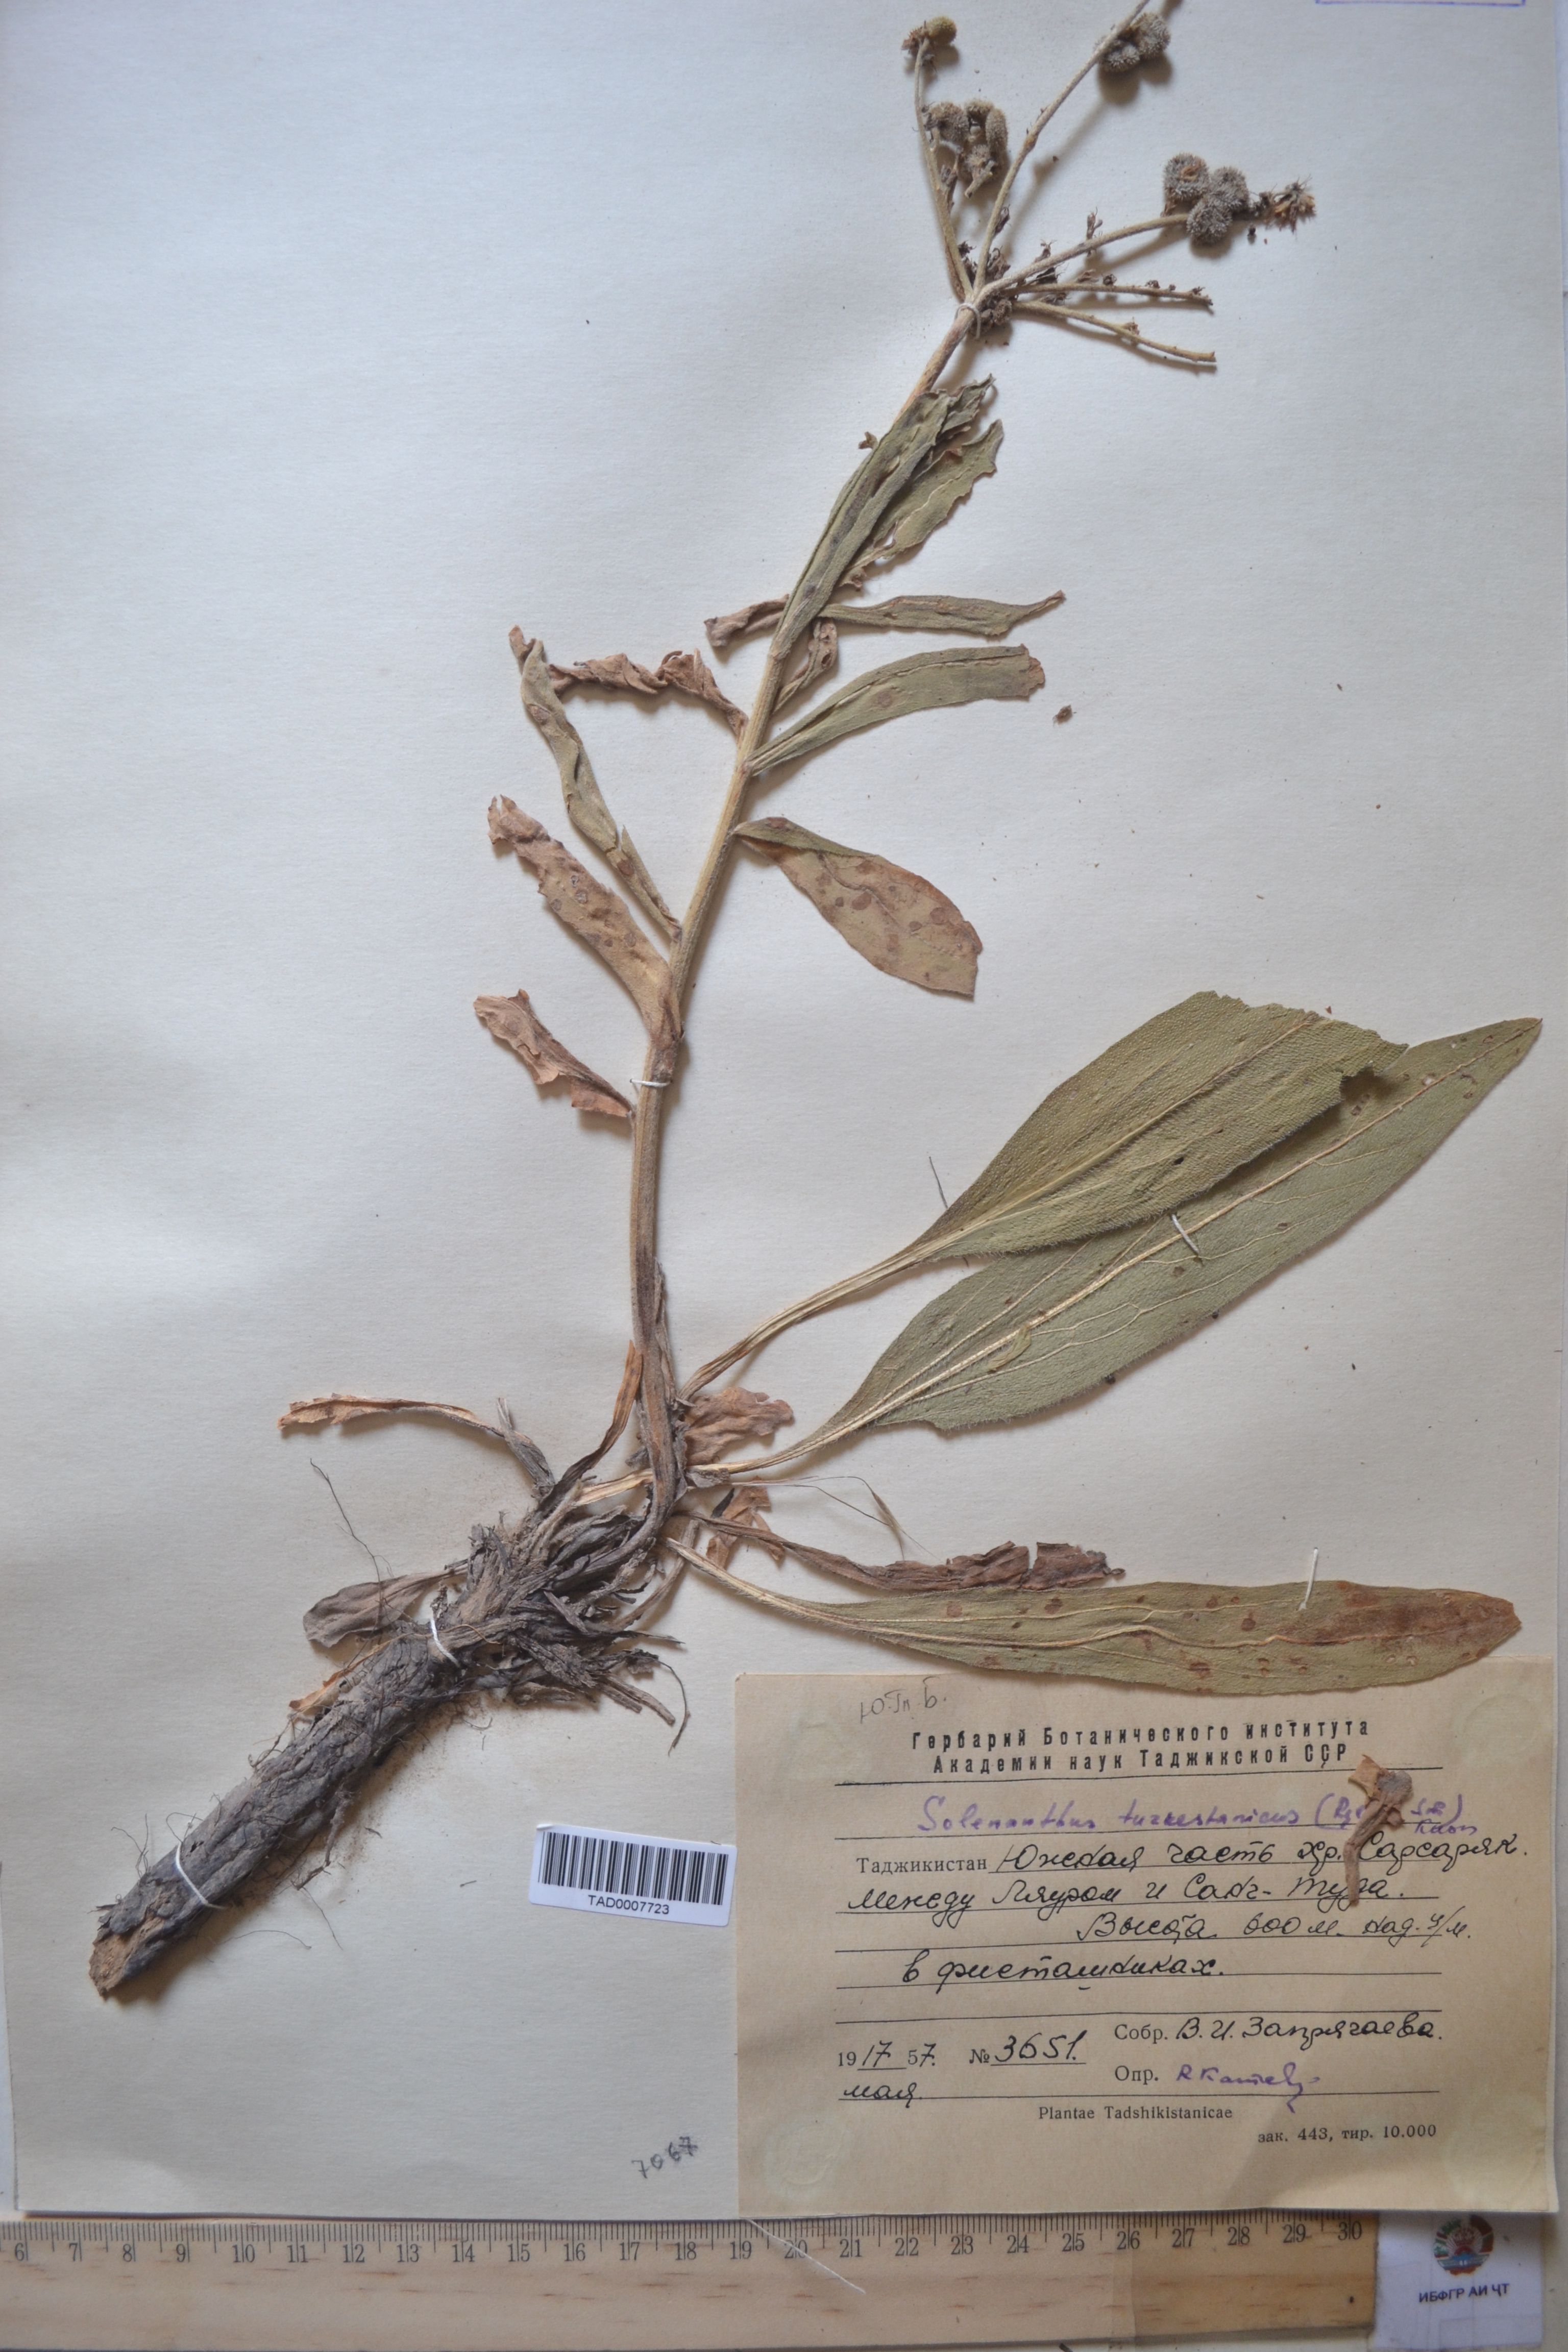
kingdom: Plantae
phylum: Tracheophyta
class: Magnoliopsida
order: Boraginales
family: Boraginaceae
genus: Solenanthus
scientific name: Solenanthus turkestanicus
